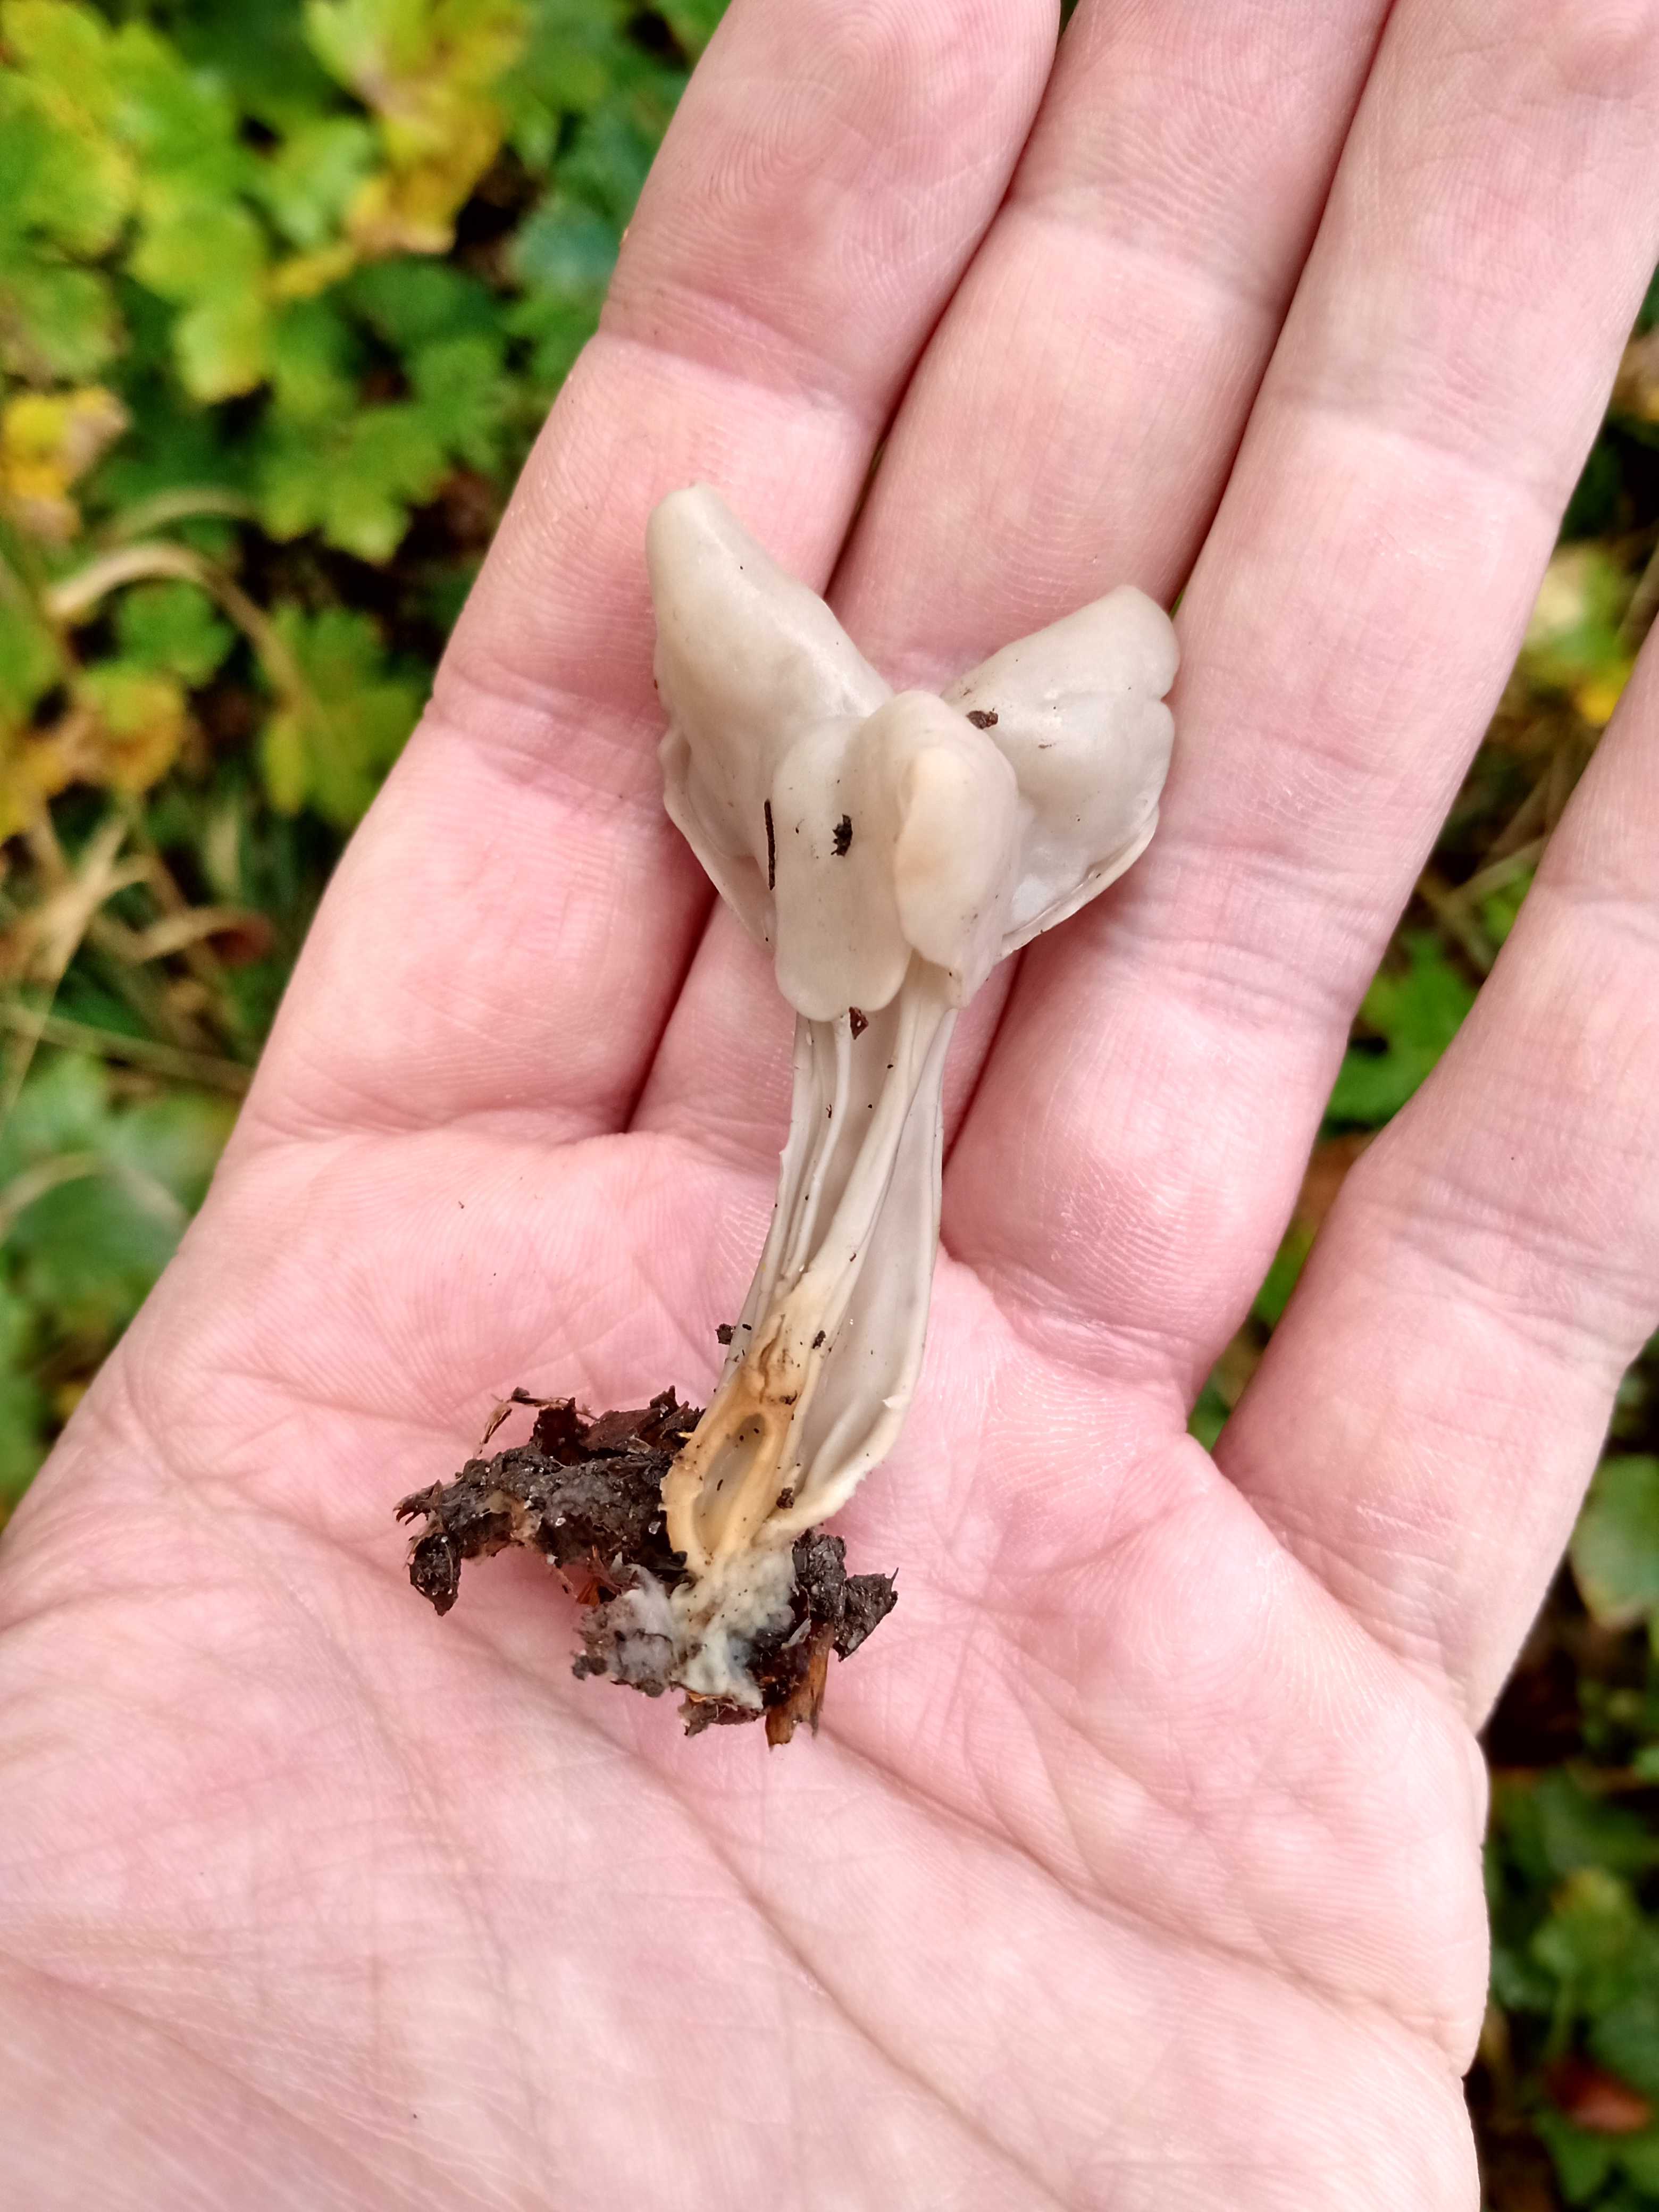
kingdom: Fungi
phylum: Ascomycota
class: Pezizomycetes
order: Pezizales
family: Helvellaceae
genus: Helvella
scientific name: Helvella crispa
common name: kruset foldhat
